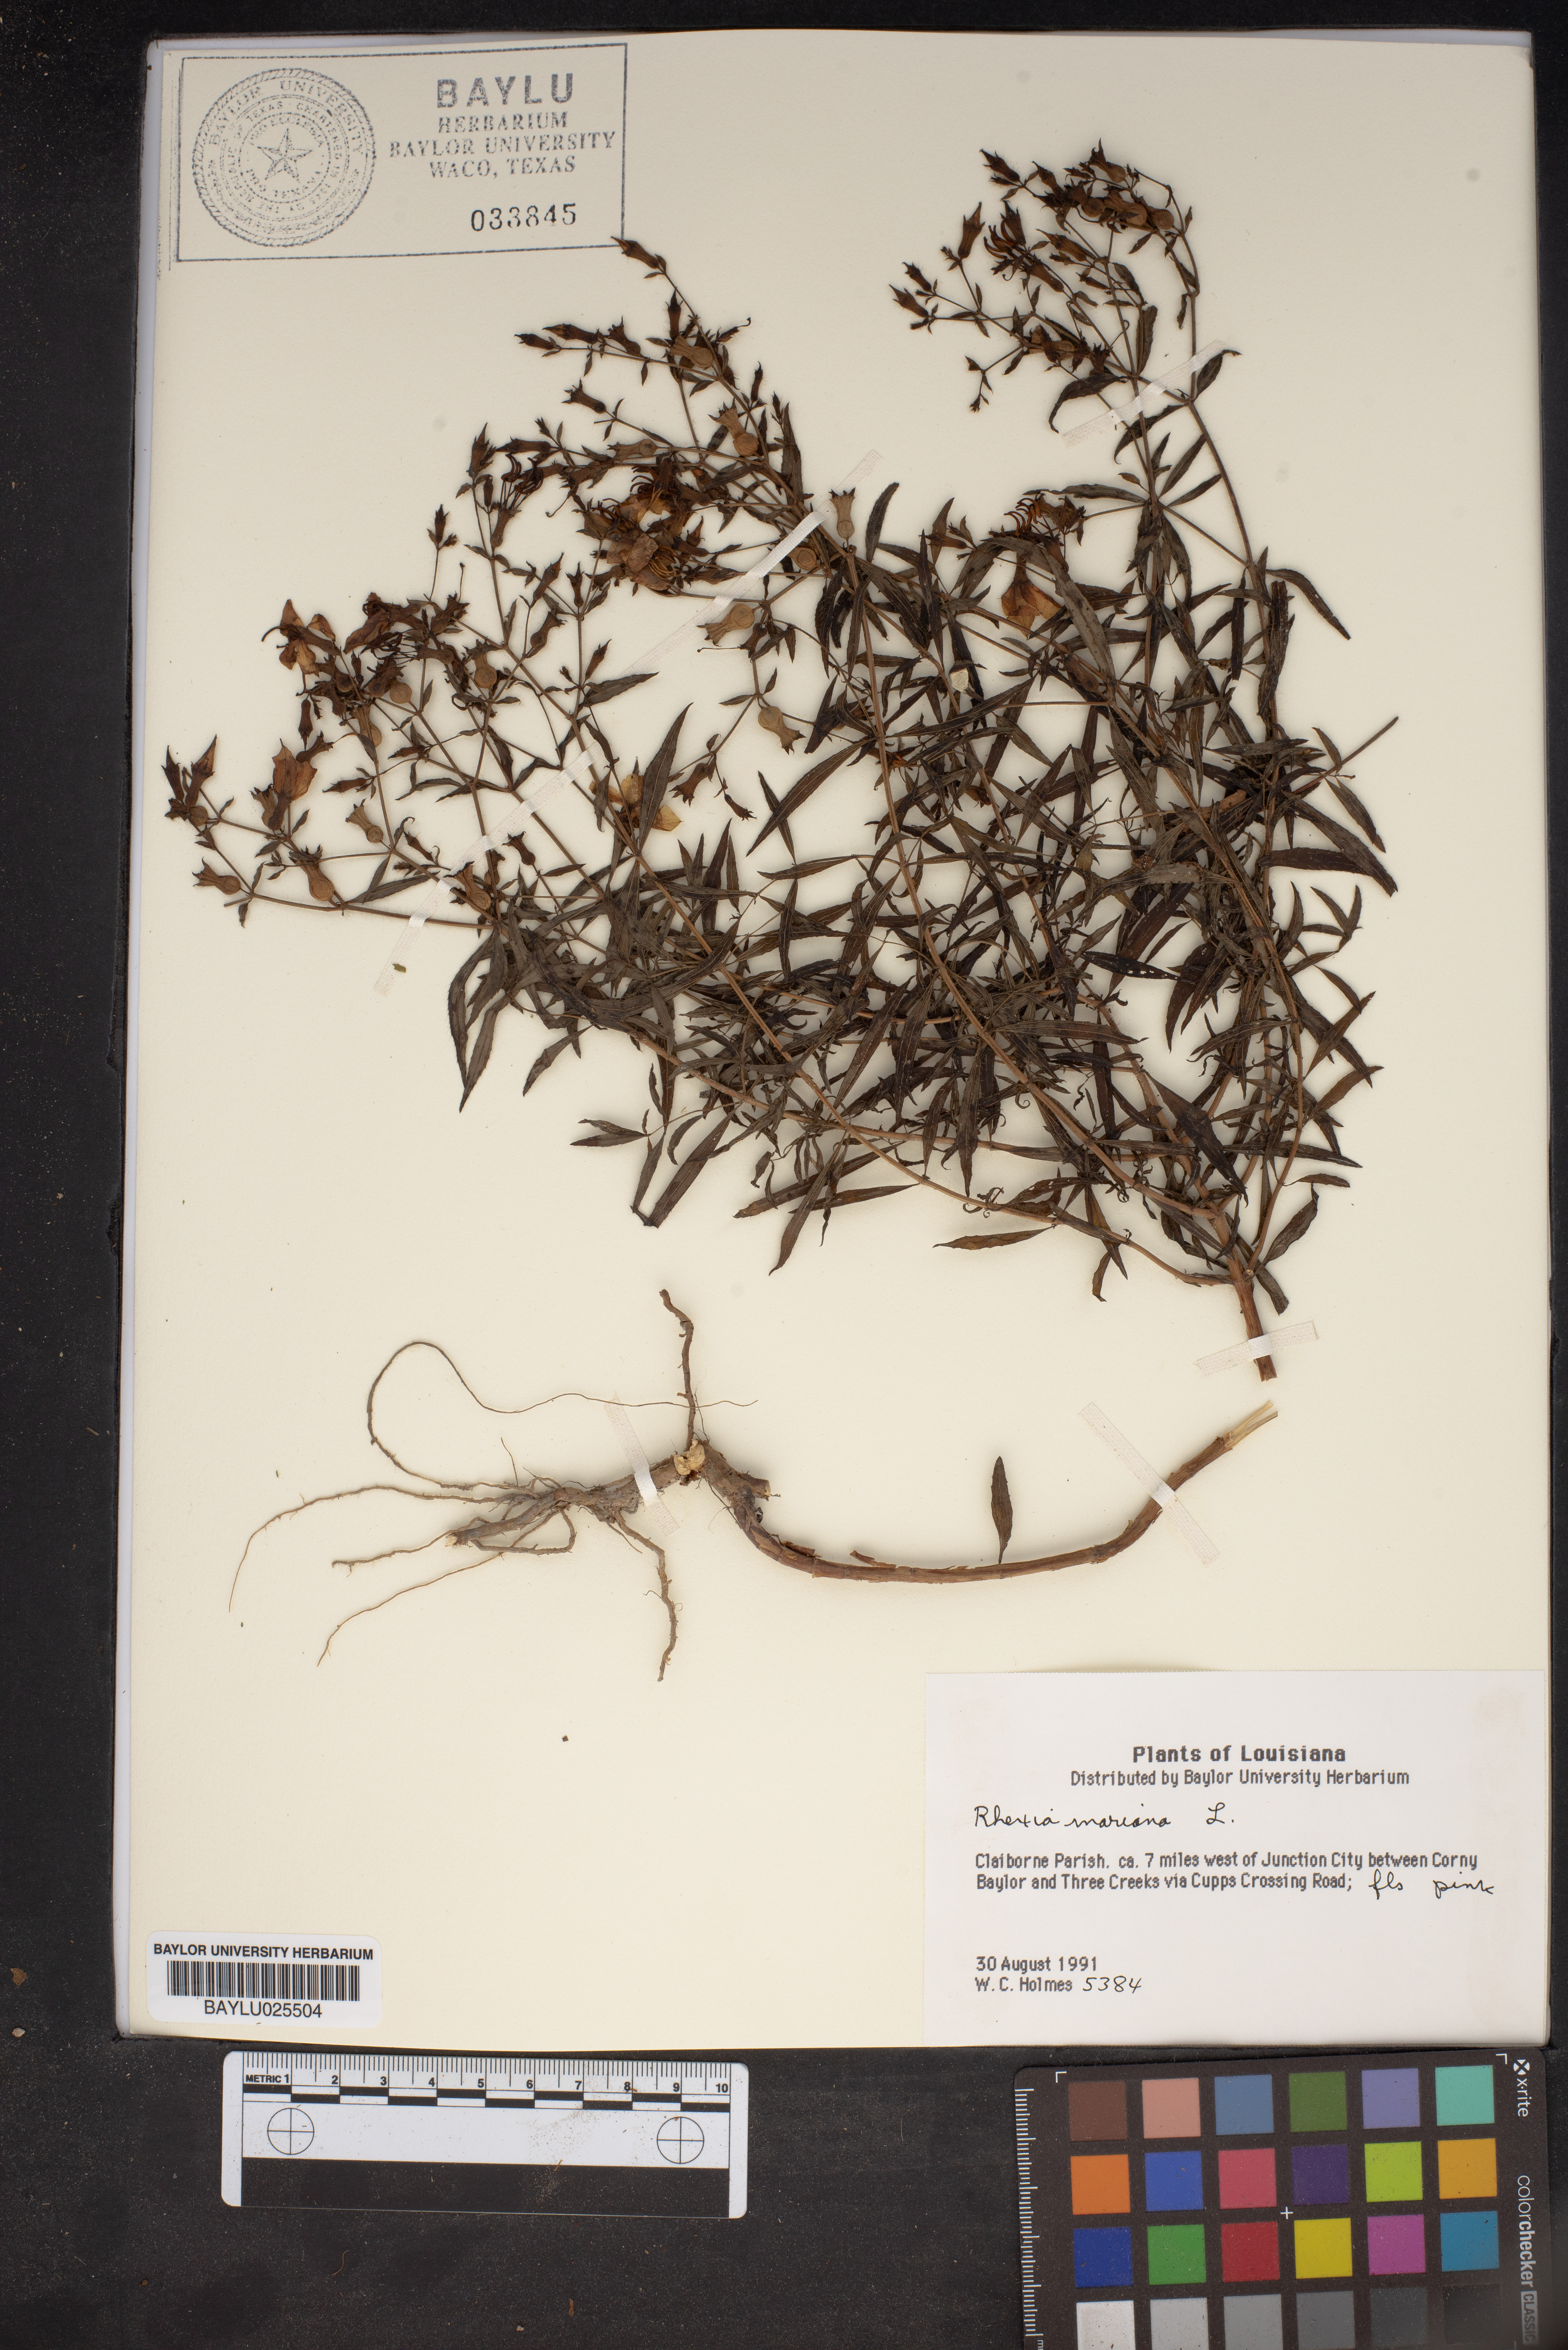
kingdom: Plantae
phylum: Tracheophyta
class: Magnoliopsida
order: Myrtales
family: Melastomataceae
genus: Rhexia
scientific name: Rhexia mariana
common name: Dull meadow-pitcher
